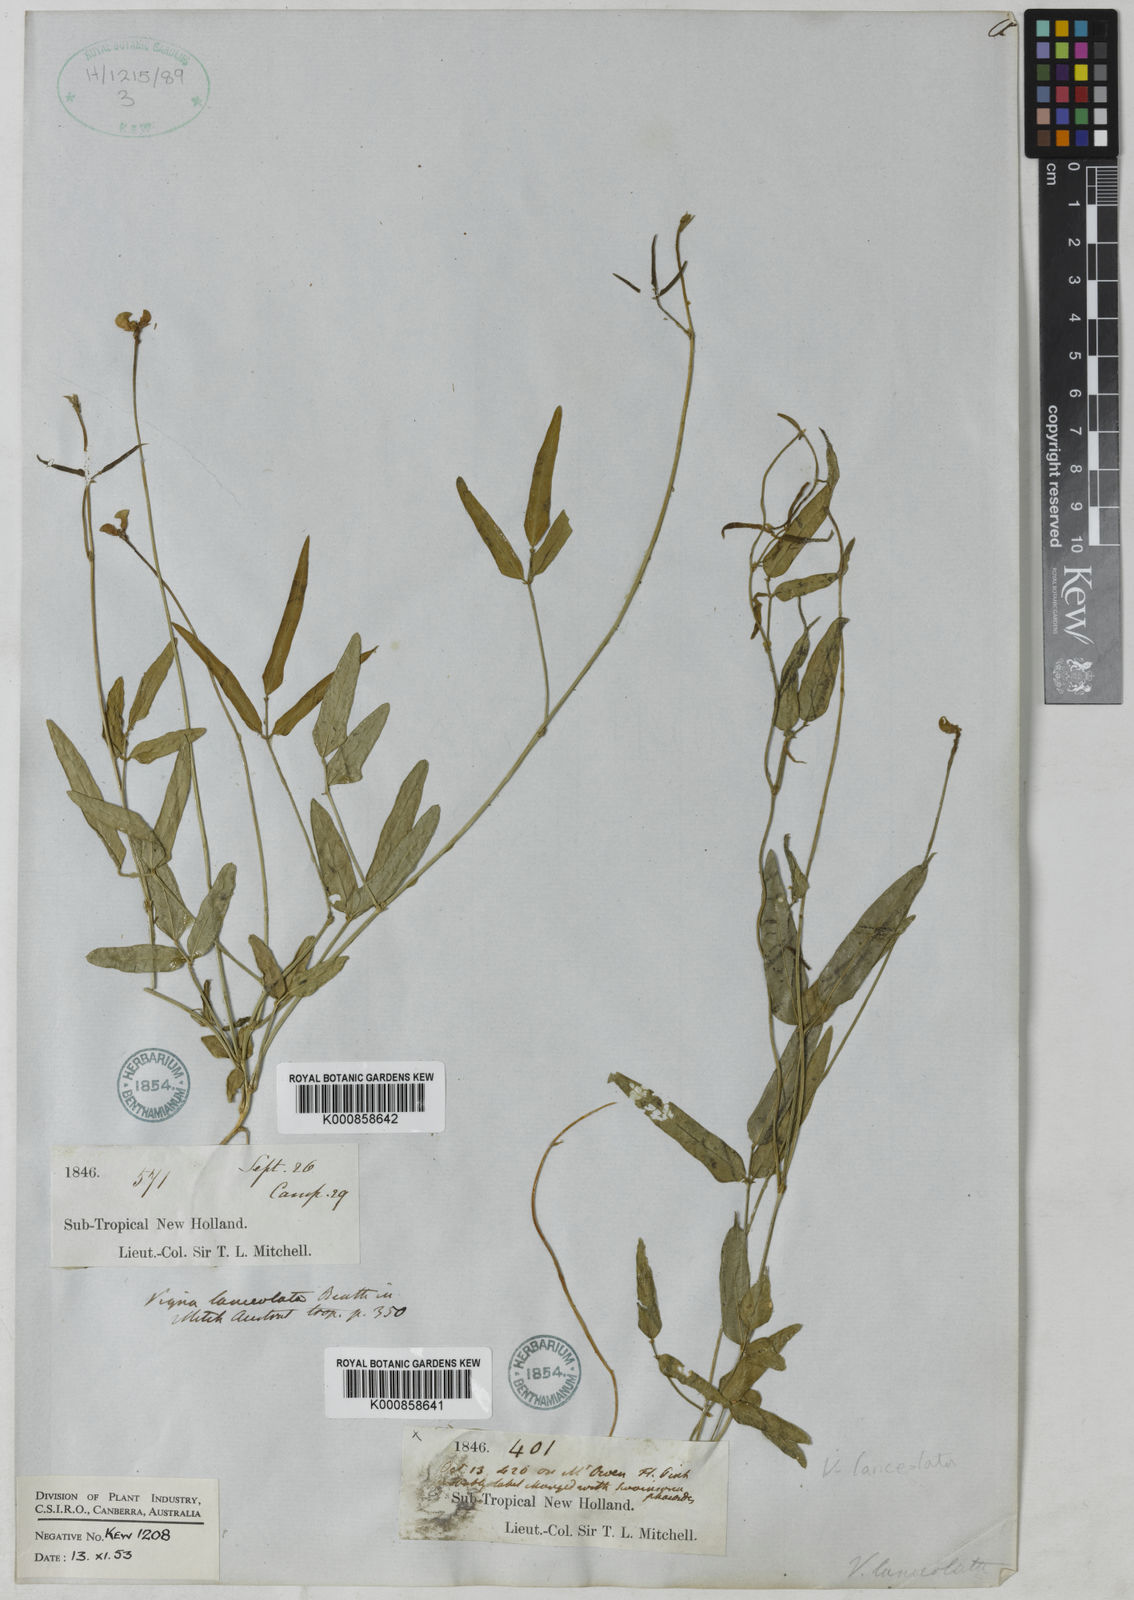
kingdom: Plantae
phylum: Tracheophyta
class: Magnoliopsida
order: Fabales
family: Fabaceae
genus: Vigna
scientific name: Vigna lanceolata
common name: Maloga-bean
